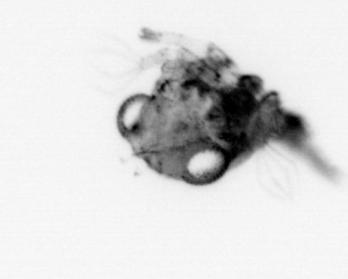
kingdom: Animalia
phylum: Arthropoda
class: Malacostraca
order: Decapoda
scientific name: Decapoda
